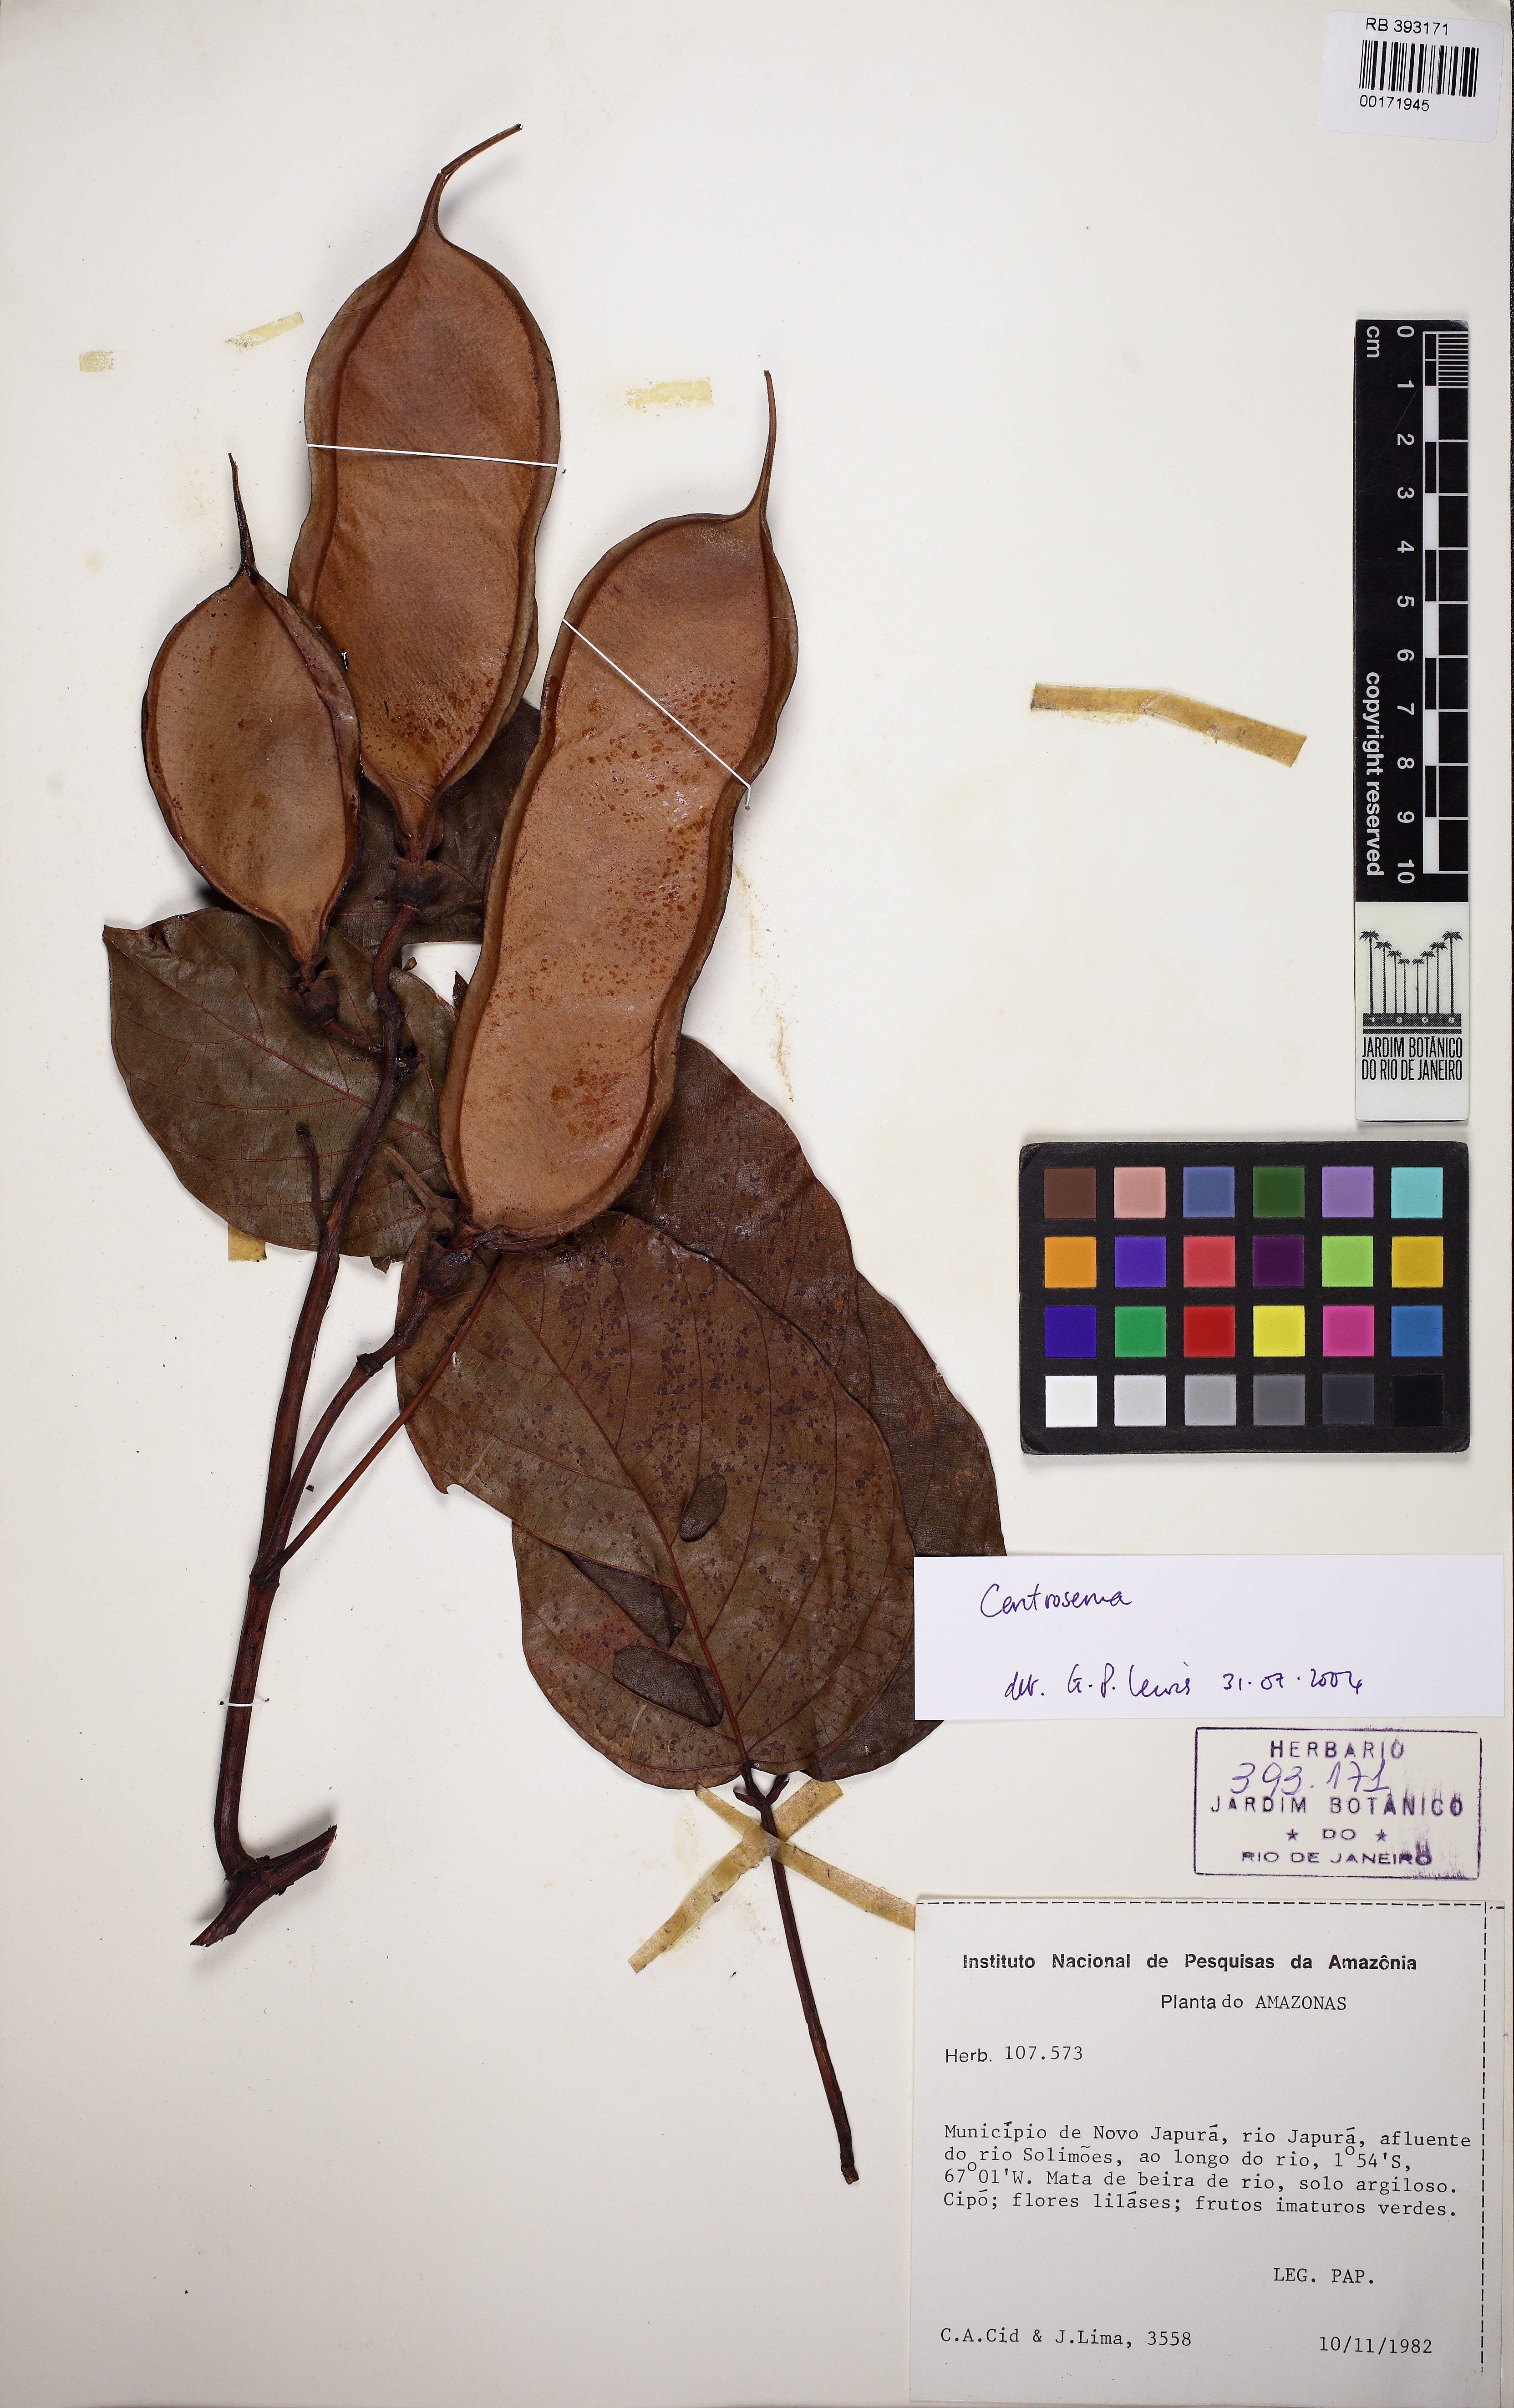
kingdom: Plantae
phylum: Tracheophyta
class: Magnoliopsida
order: Fabales
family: Fabaceae
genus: Centrosema
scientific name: Centrosema triquetrum
